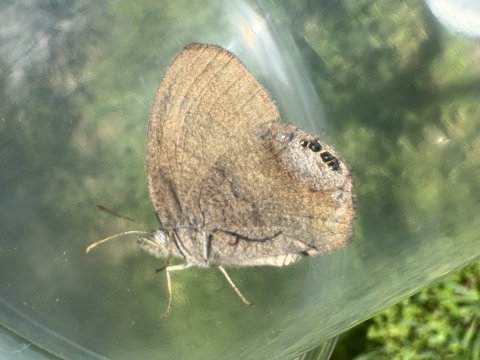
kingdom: Animalia
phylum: Arthropoda
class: Insecta
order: Lepidoptera
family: Nymphalidae
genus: Euptychia
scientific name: Euptychia cornelius
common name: Gemmed Satyr
